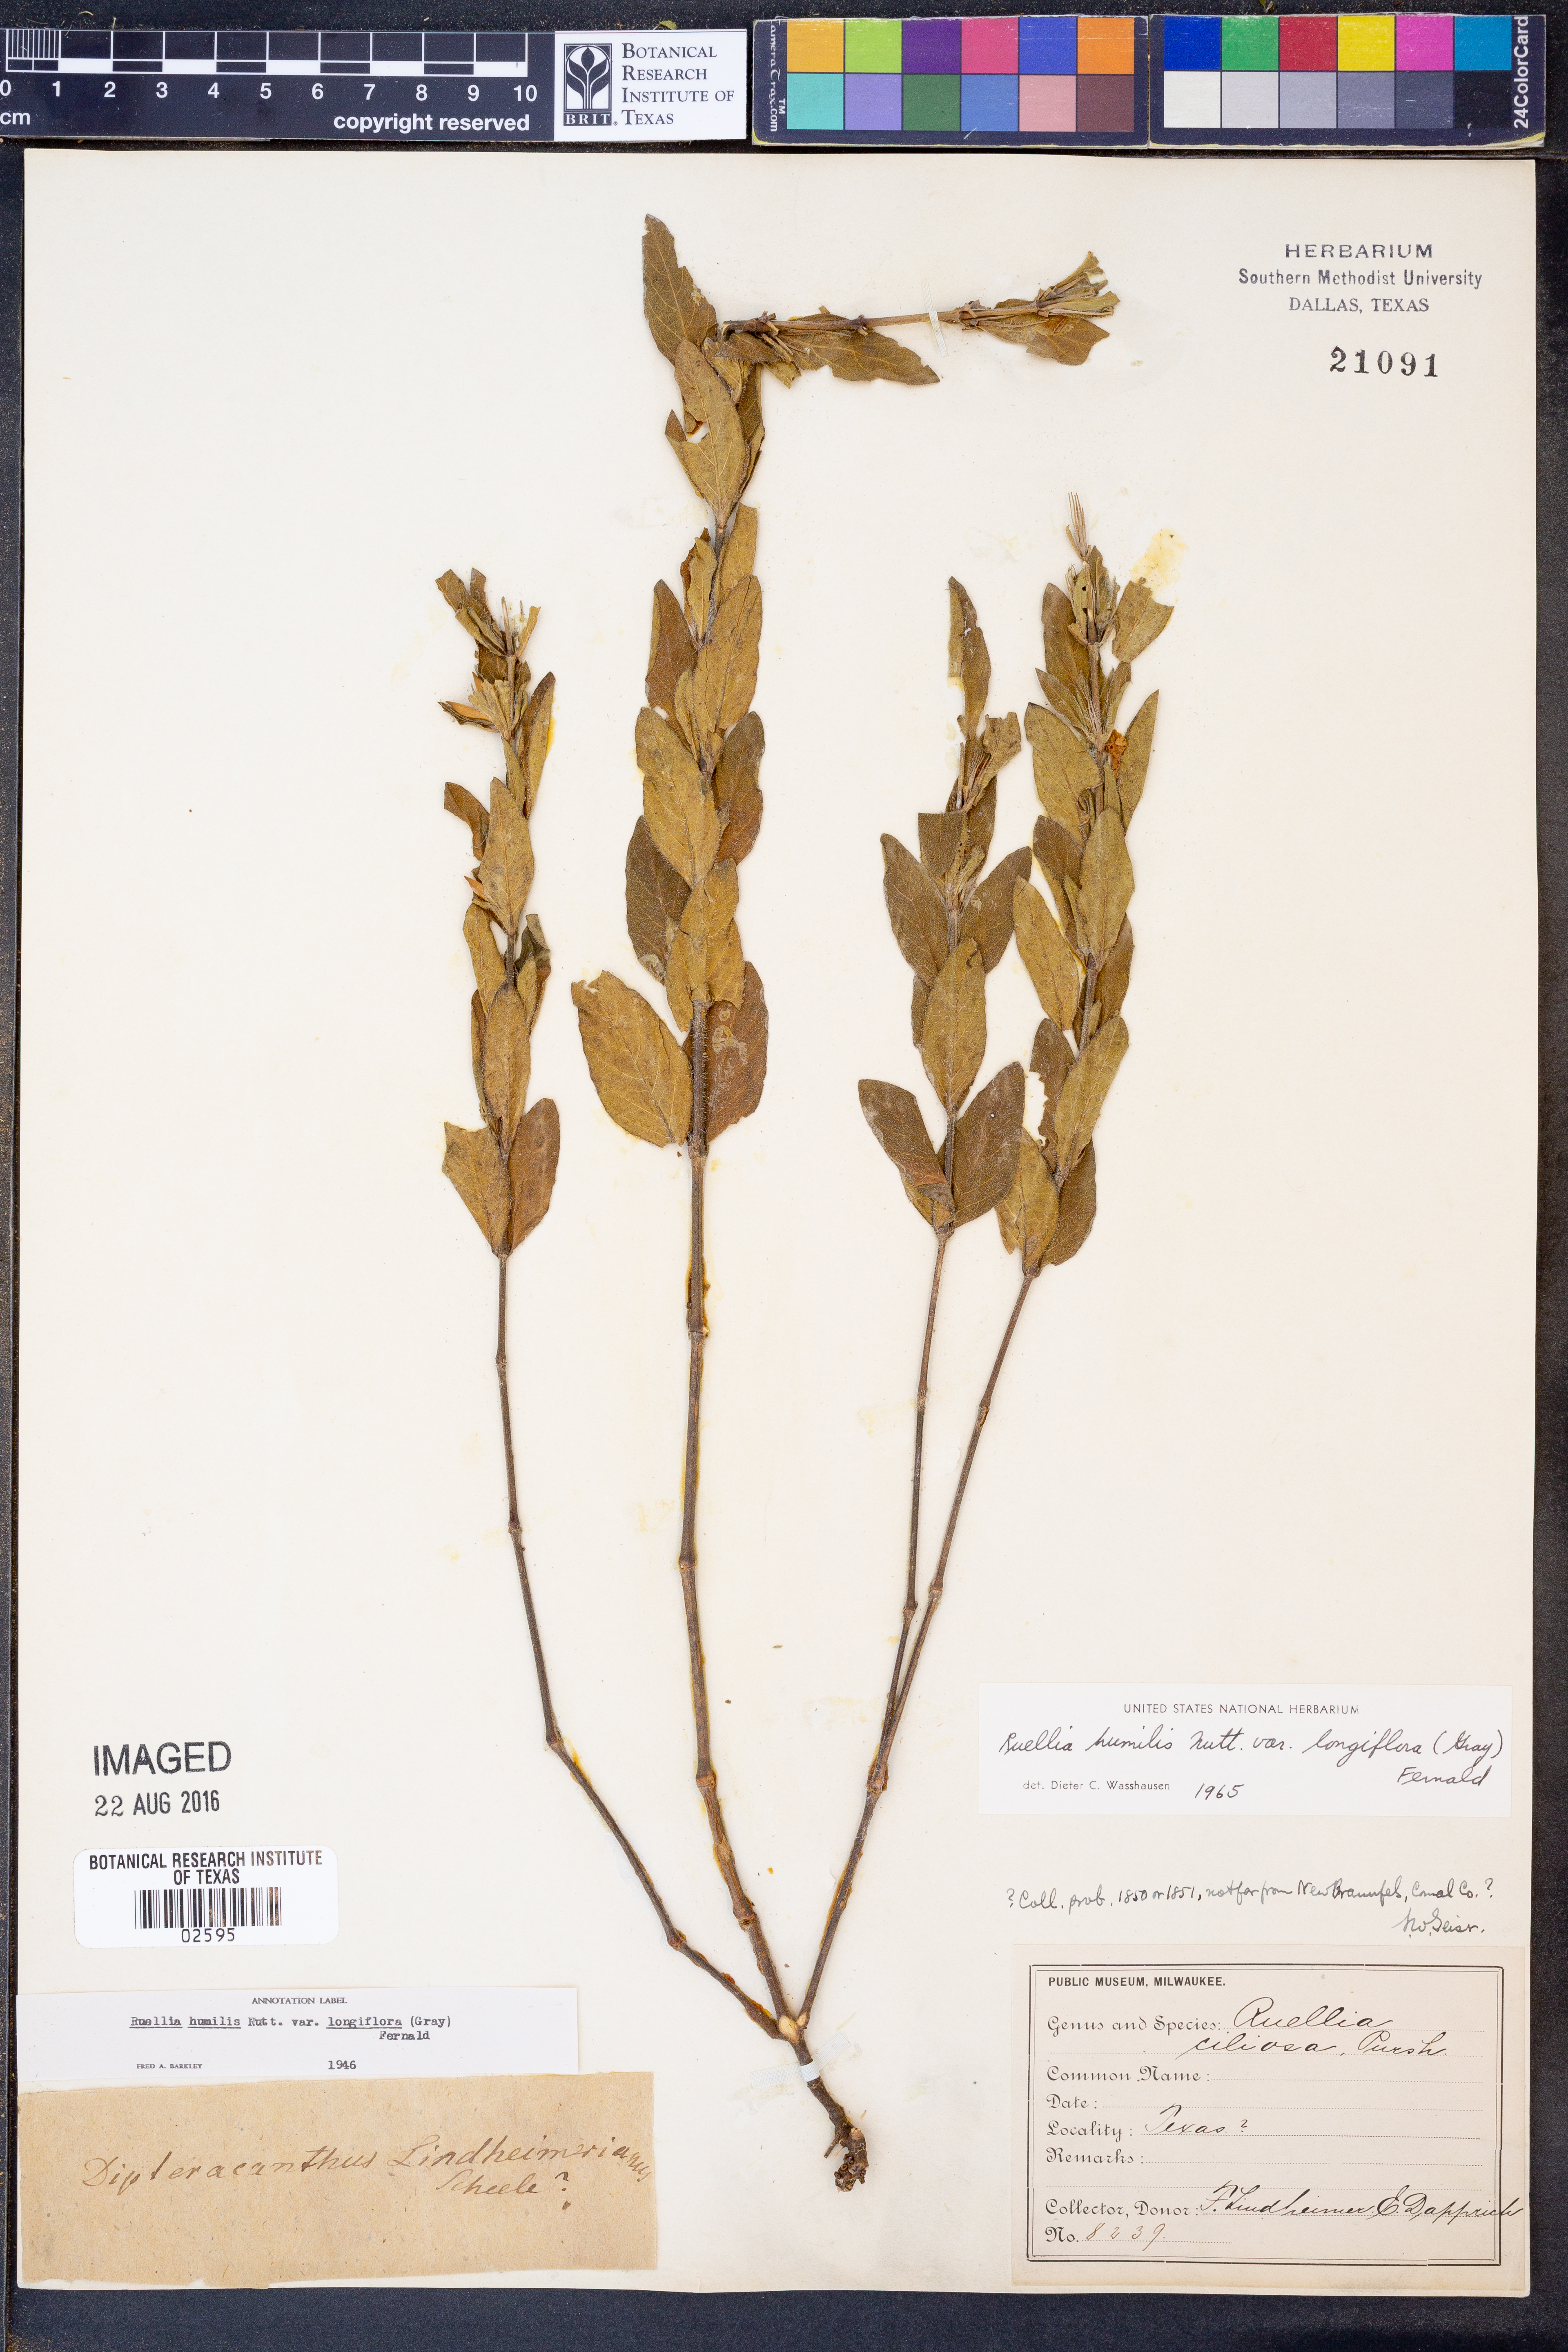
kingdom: Plantae
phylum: Tracheophyta
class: Magnoliopsida
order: Lamiales
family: Acanthaceae
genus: Ruellia
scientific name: Ruellia humilis
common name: Fringe-leaf ruellia
